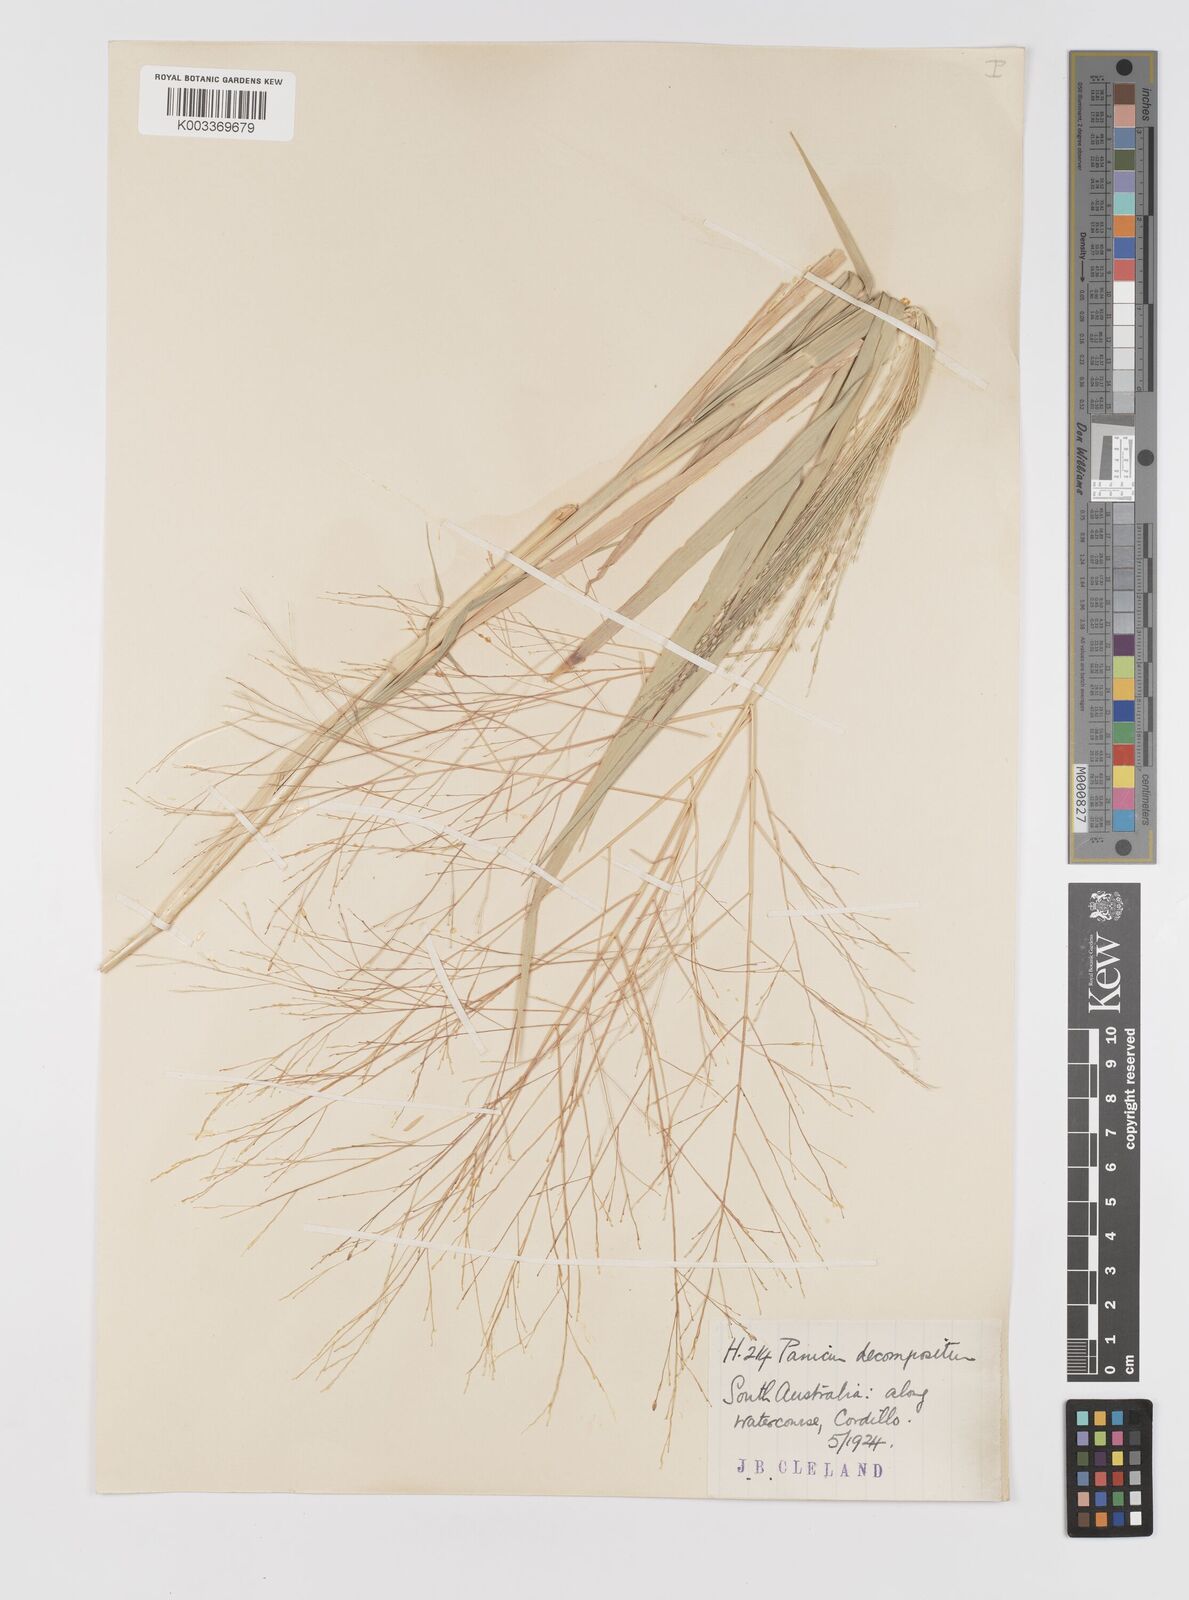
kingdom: Plantae
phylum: Tracheophyta
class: Liliopsida
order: Poales
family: Poaceae
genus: Panicum
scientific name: Panicum decompositum
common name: Australian millet
